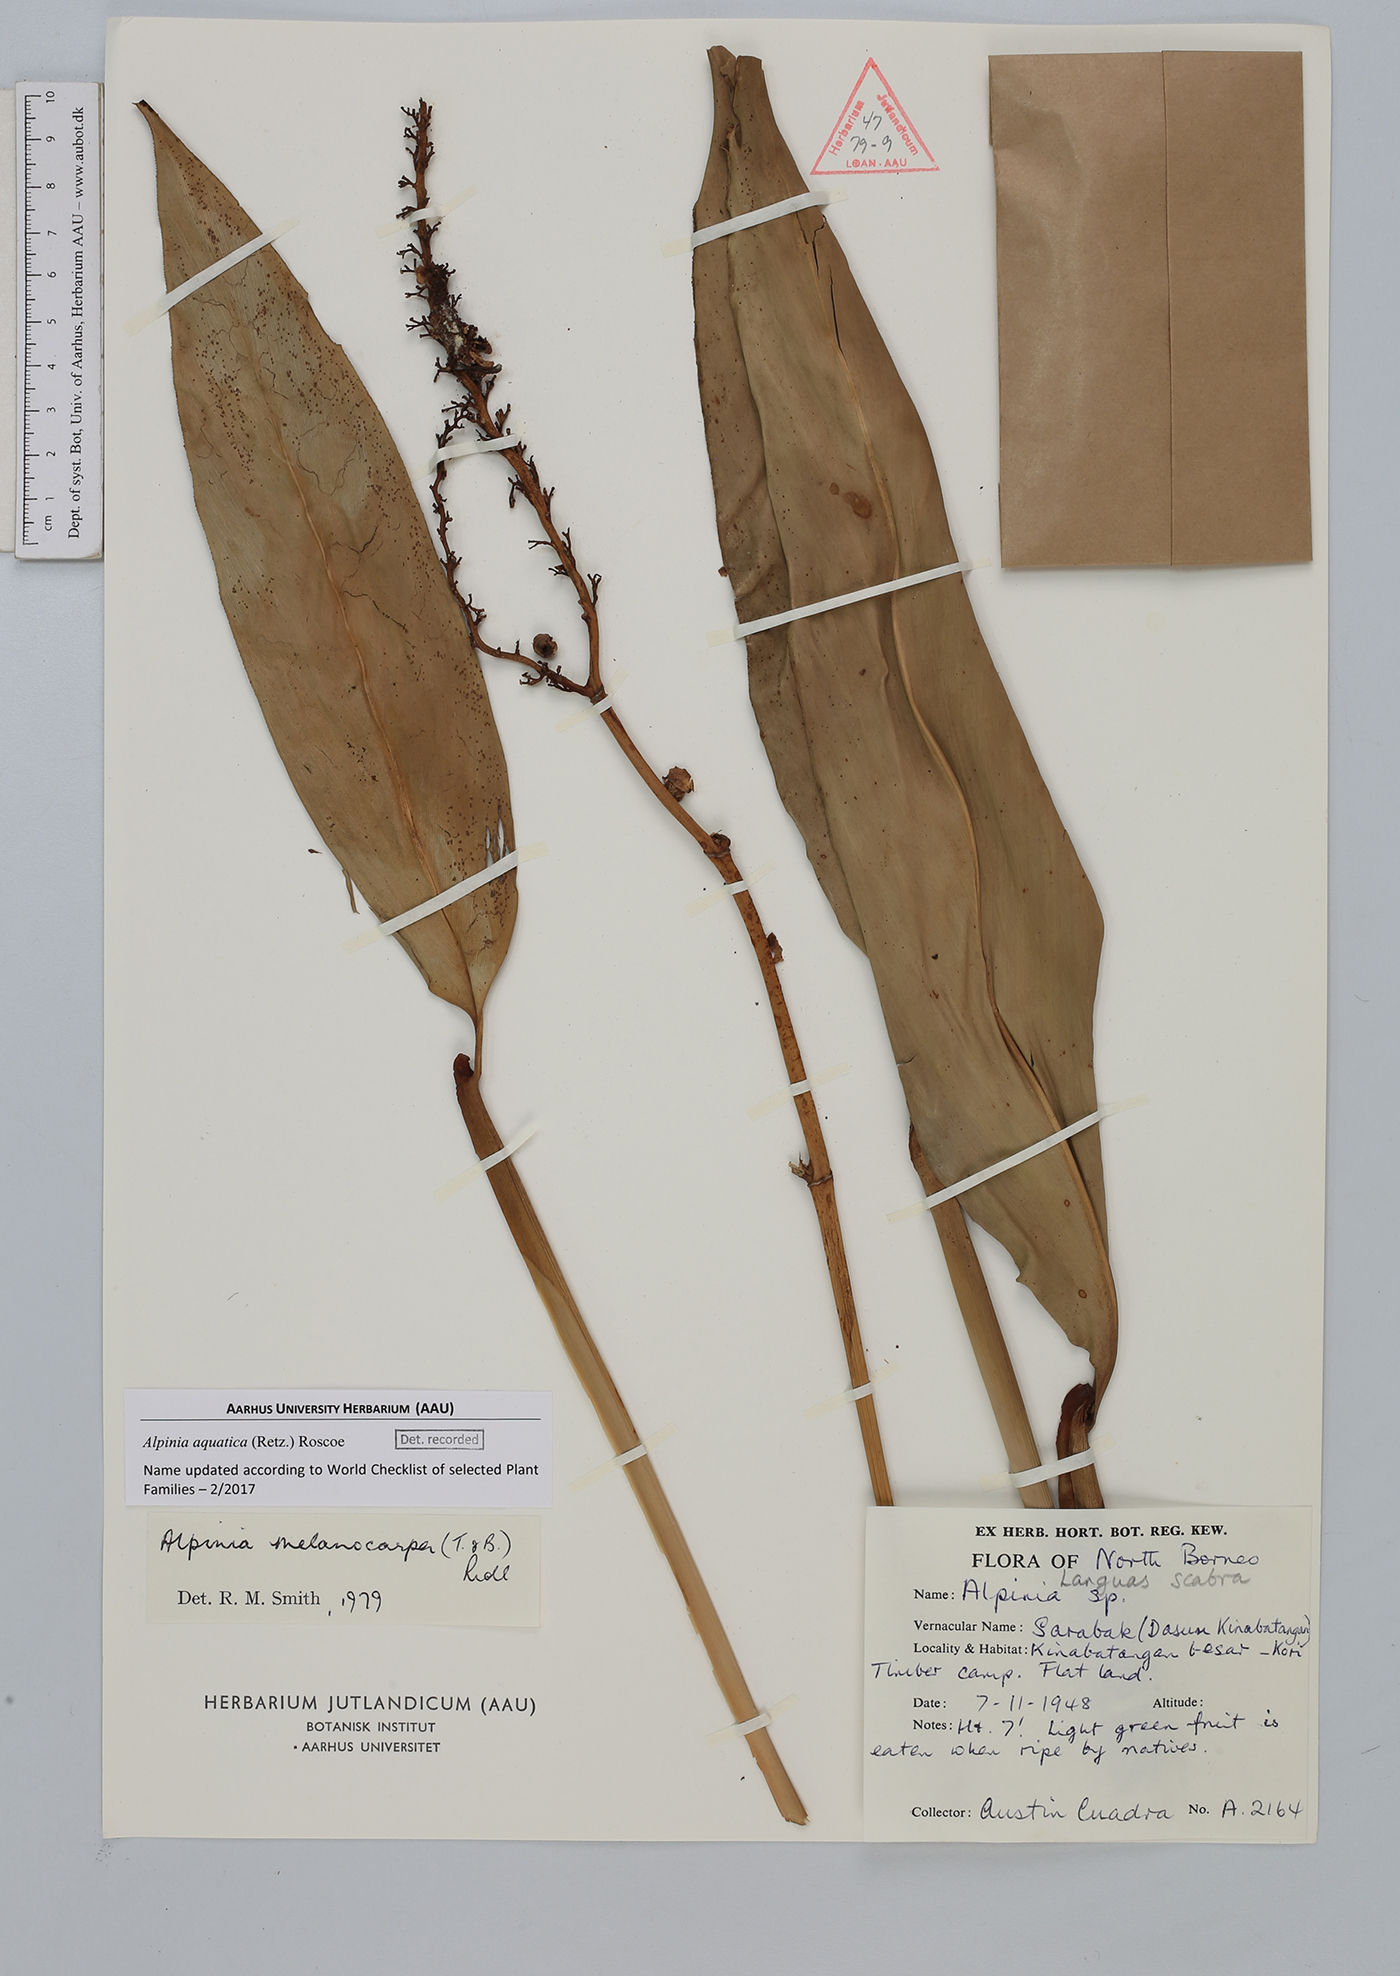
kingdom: Plantae
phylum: Tracheophyta
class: Liliopsida
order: Zingiberales
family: Zingiberaceae
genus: Alpinia
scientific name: Alpinia aquatica
